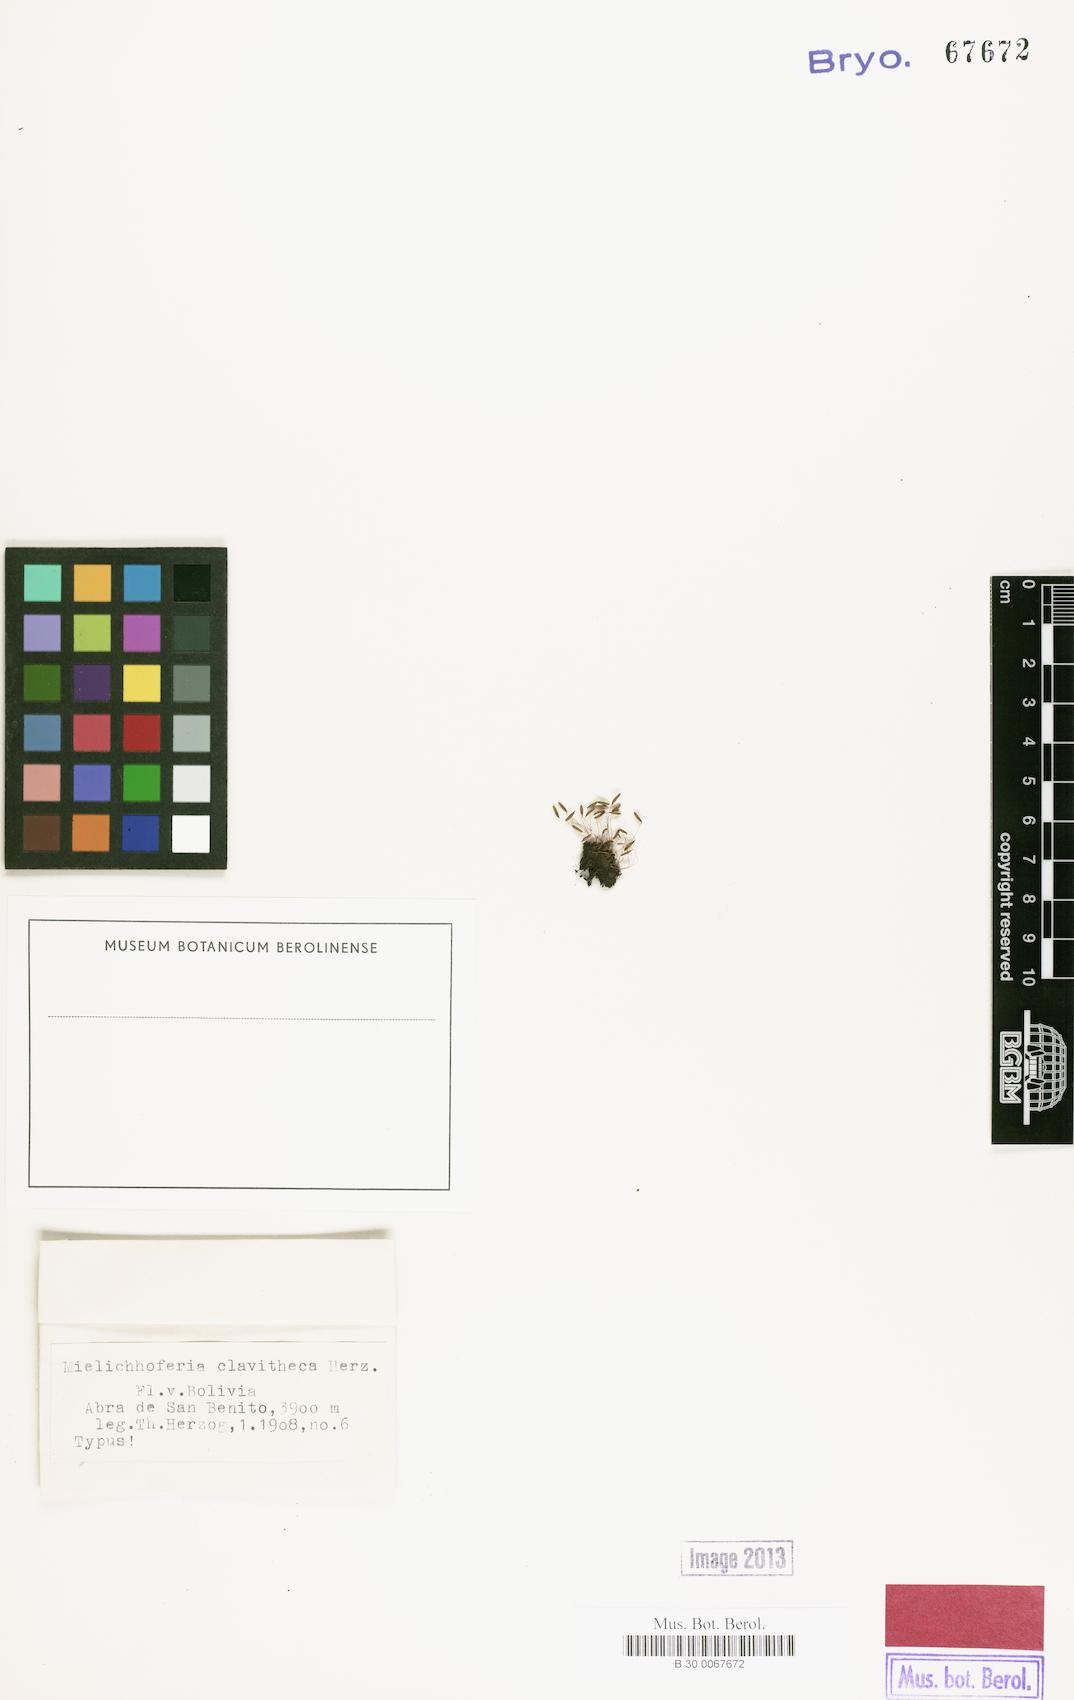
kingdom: Plantae
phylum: Bryophyta
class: Bryopsida
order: Bryales
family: Mniaceae
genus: Schizymenium
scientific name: Schizymenium campylocarpum
